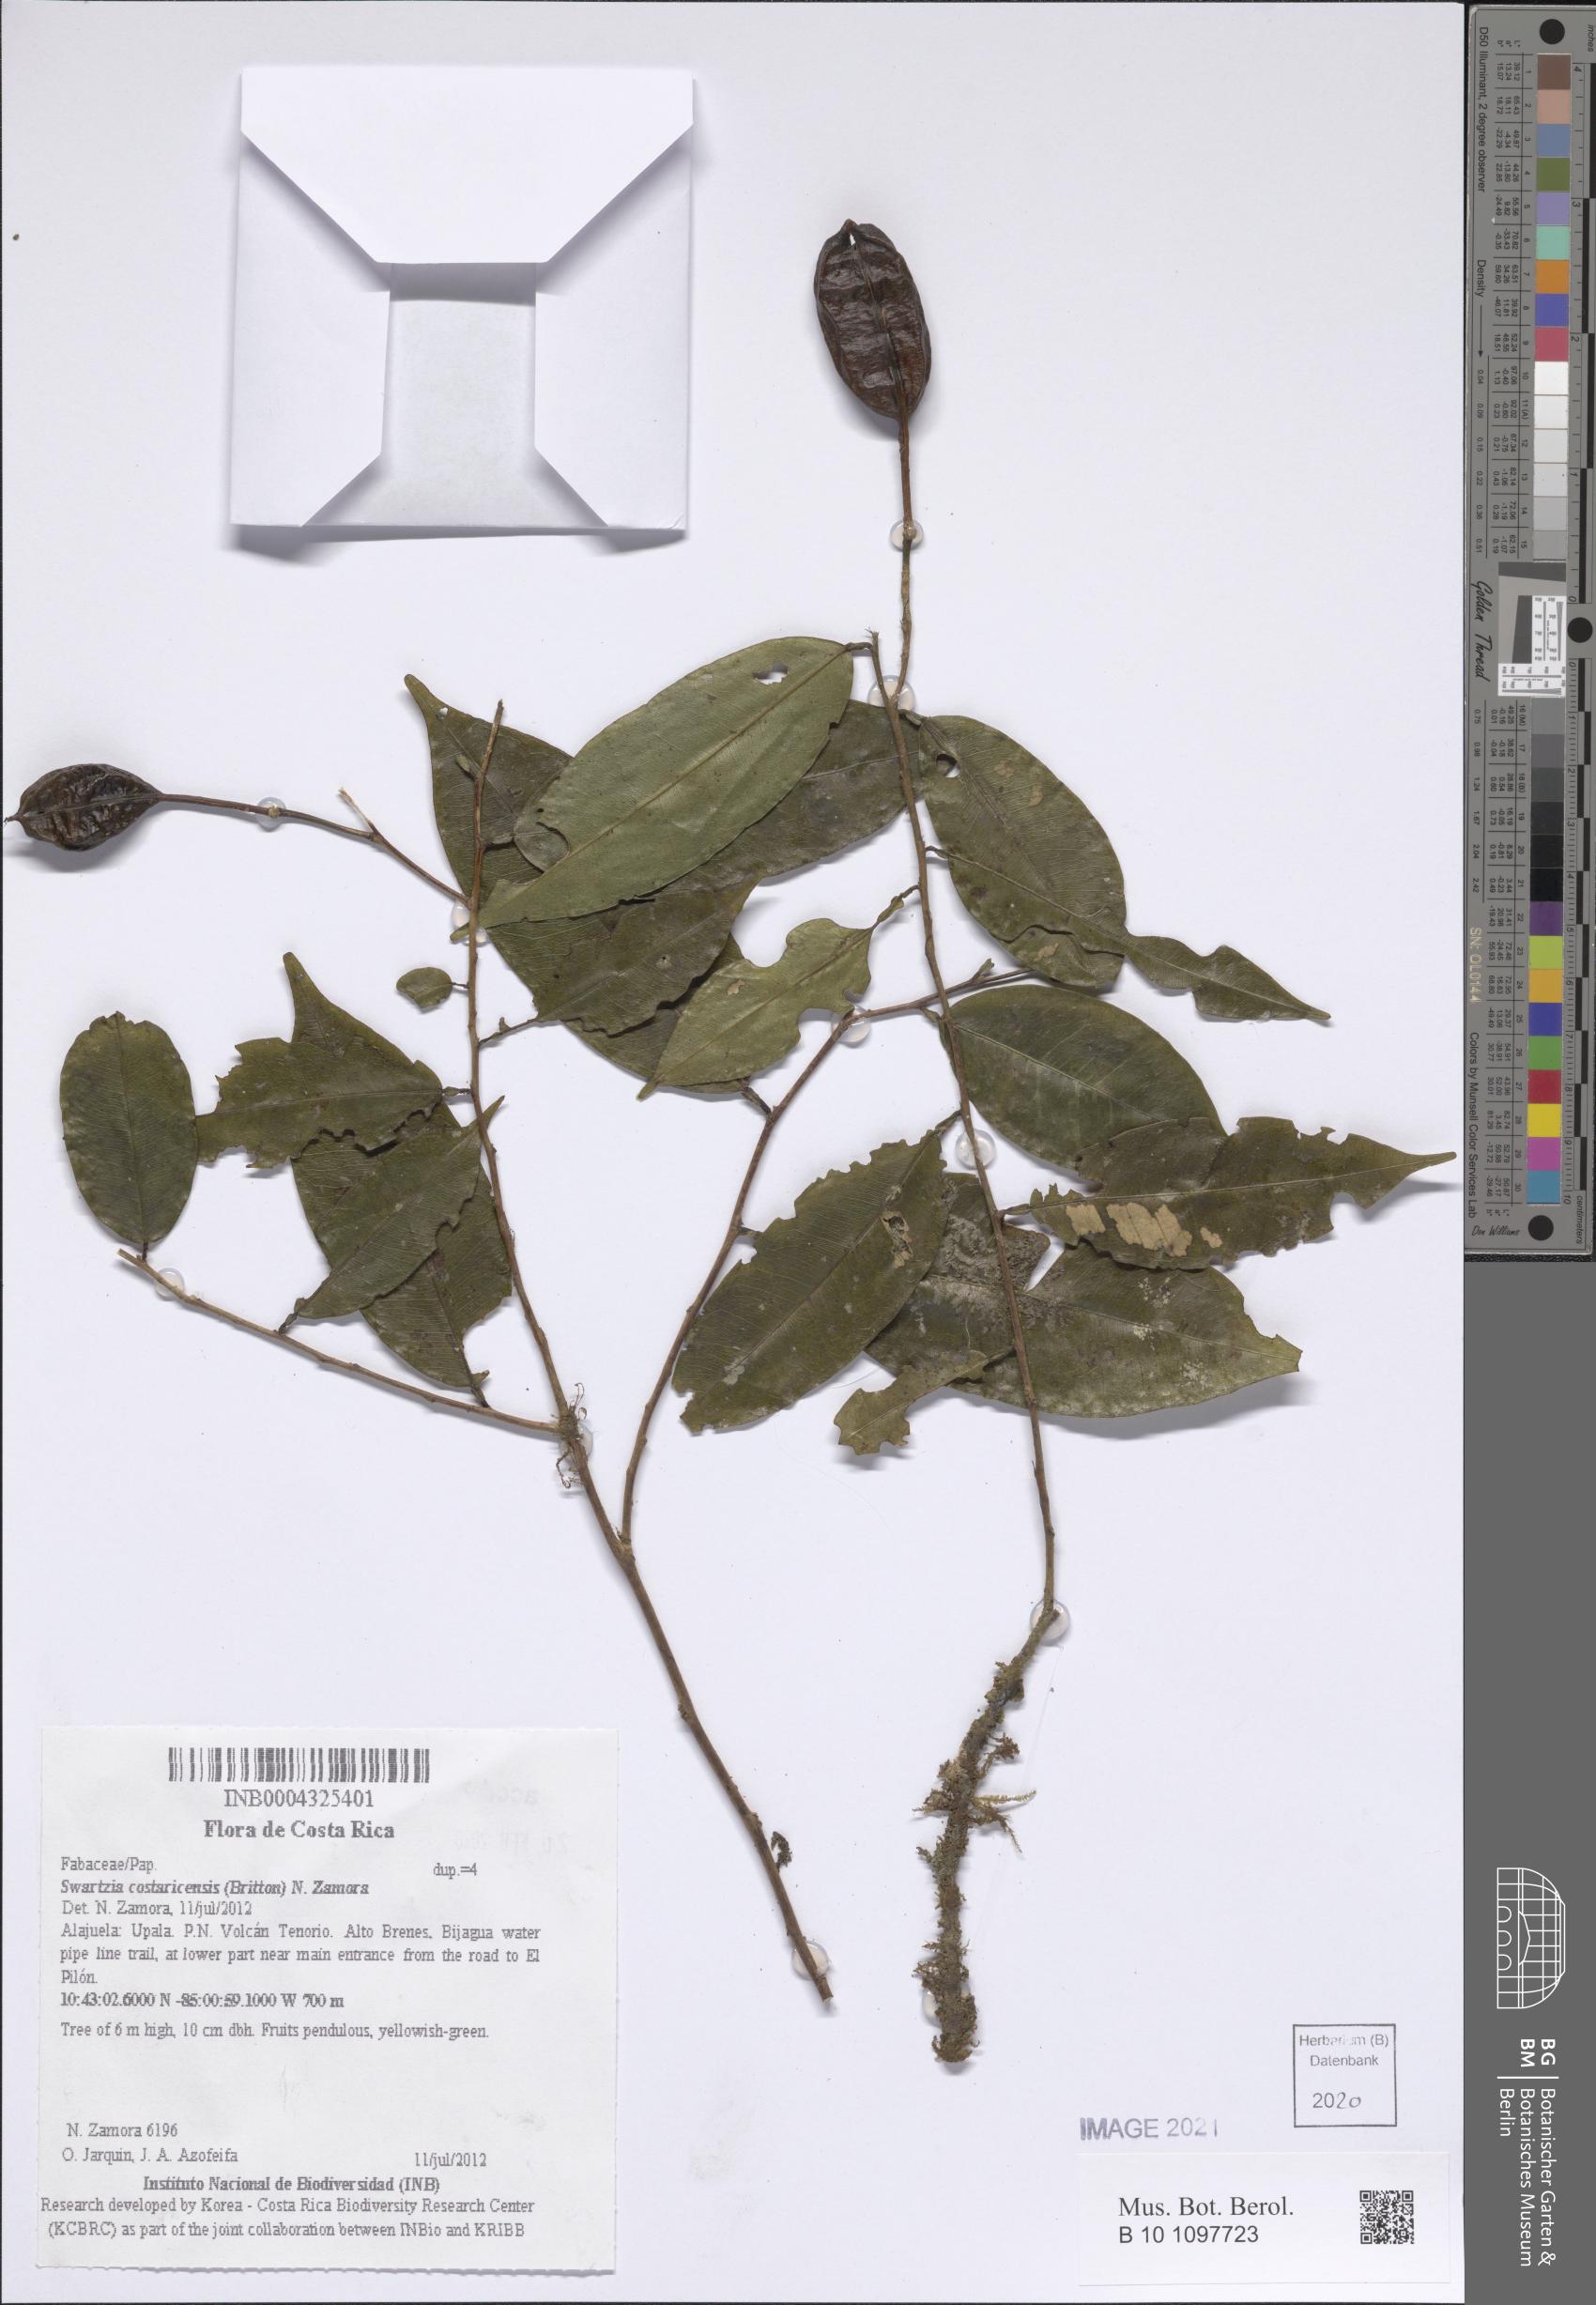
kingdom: Plantae
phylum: Tracheophyta
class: Magnoliopsida
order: Fabales
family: Fabaceae
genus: Swartzia
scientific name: Swartzia guatemalensis
